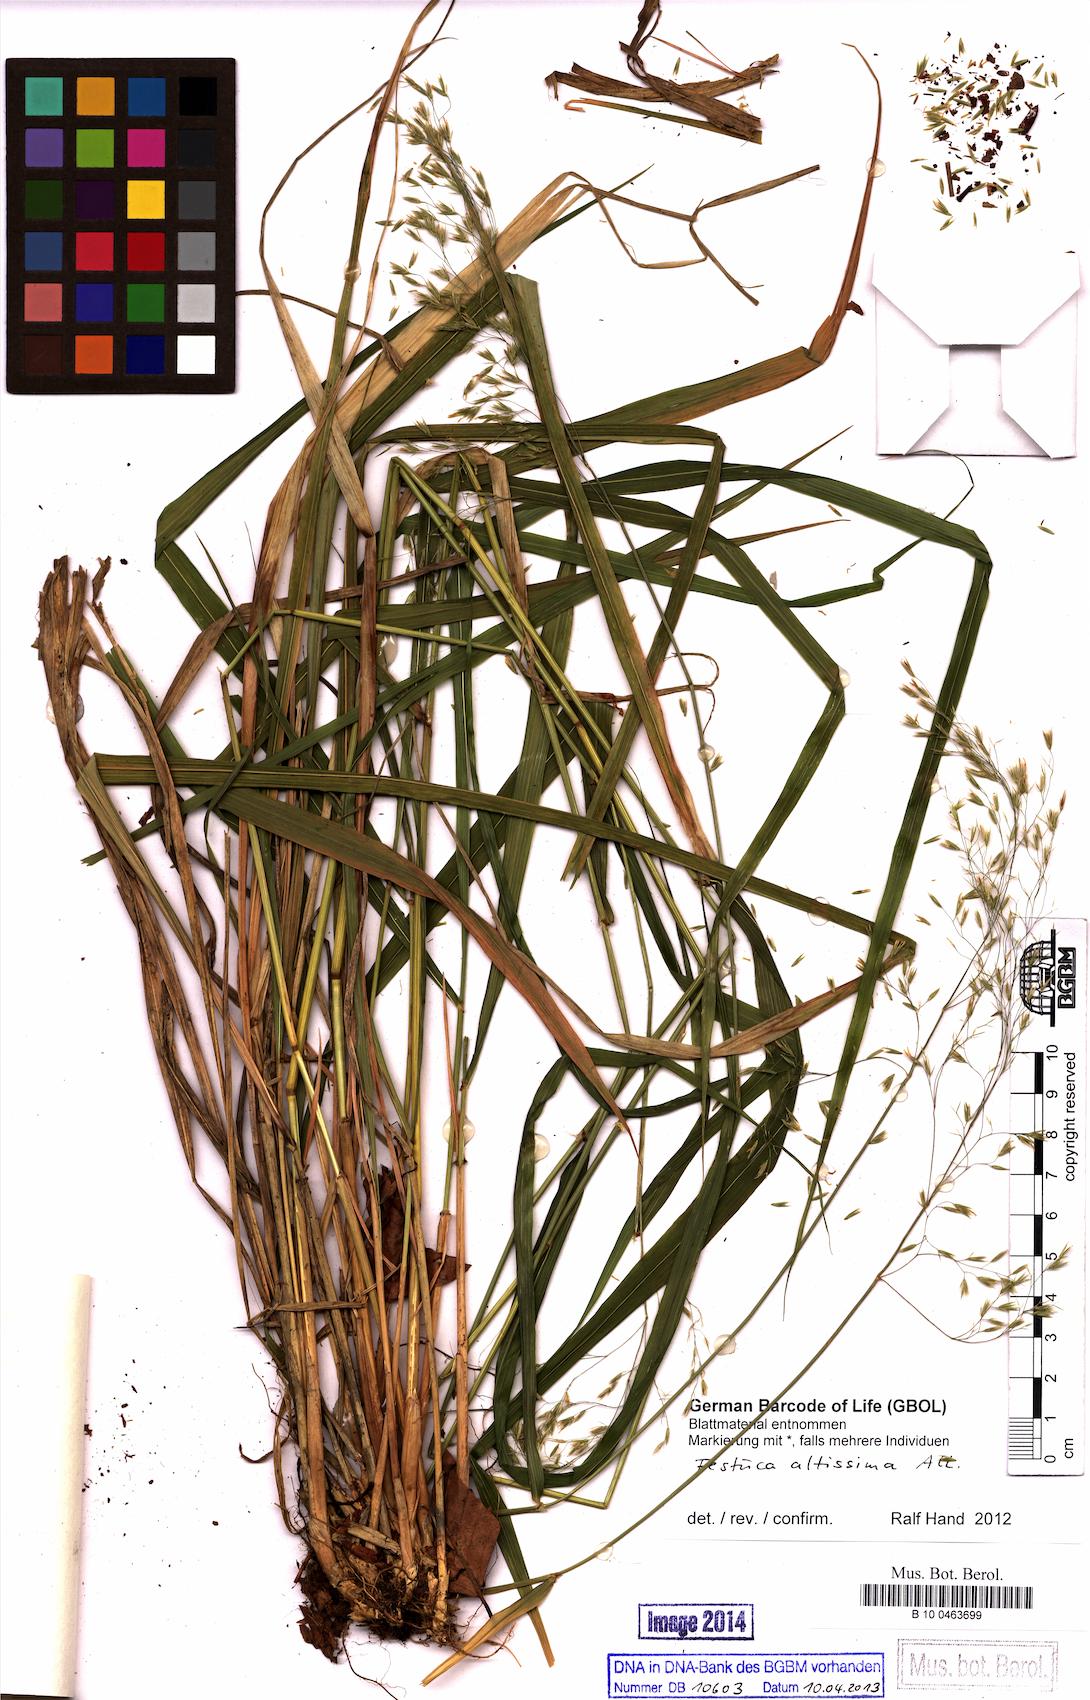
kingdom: Plantae
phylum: Tracheophyta
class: Liliopsida
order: Poales
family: Poaceae
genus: Festuca
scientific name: Festuca altissima
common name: Wood fescue
